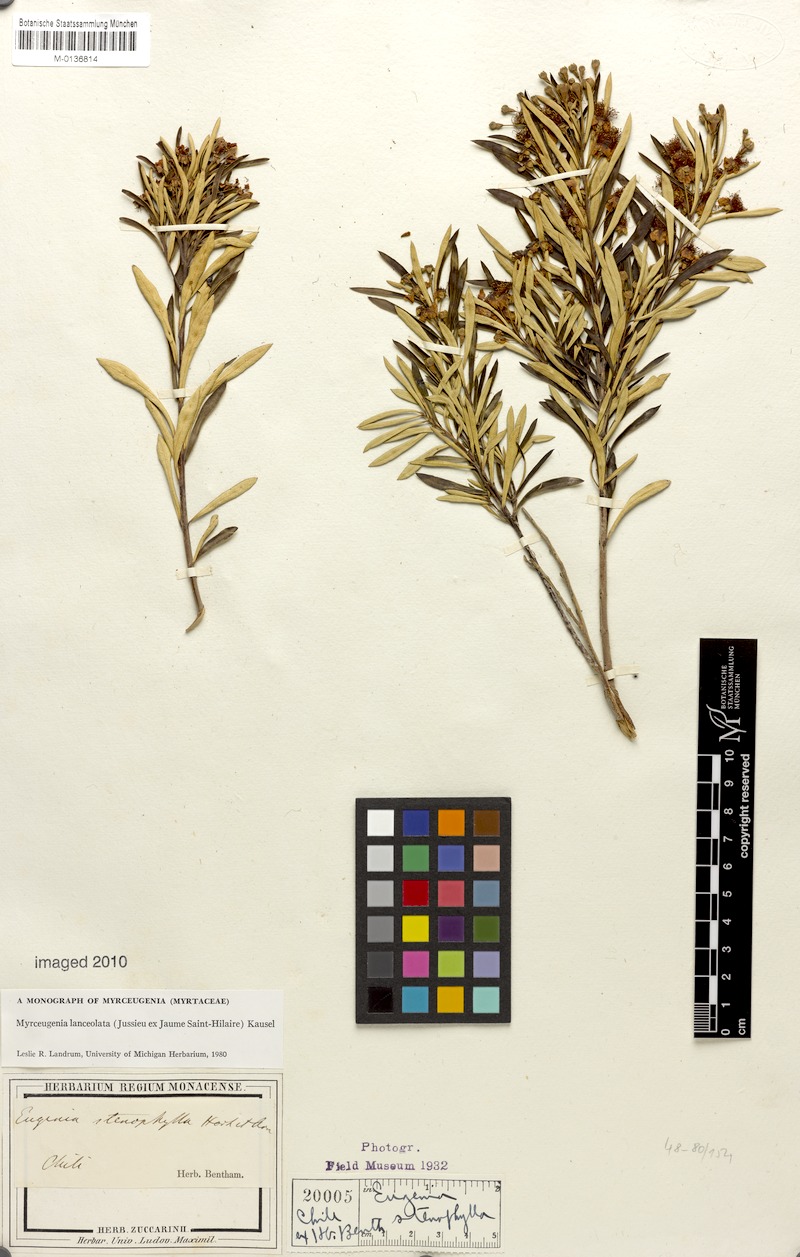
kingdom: Plantae
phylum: Tracheophyta
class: Magnoliopsida
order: Myrtales
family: Myrtaceae
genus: Myrceugenia
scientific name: Myrceugenia lanceolata
